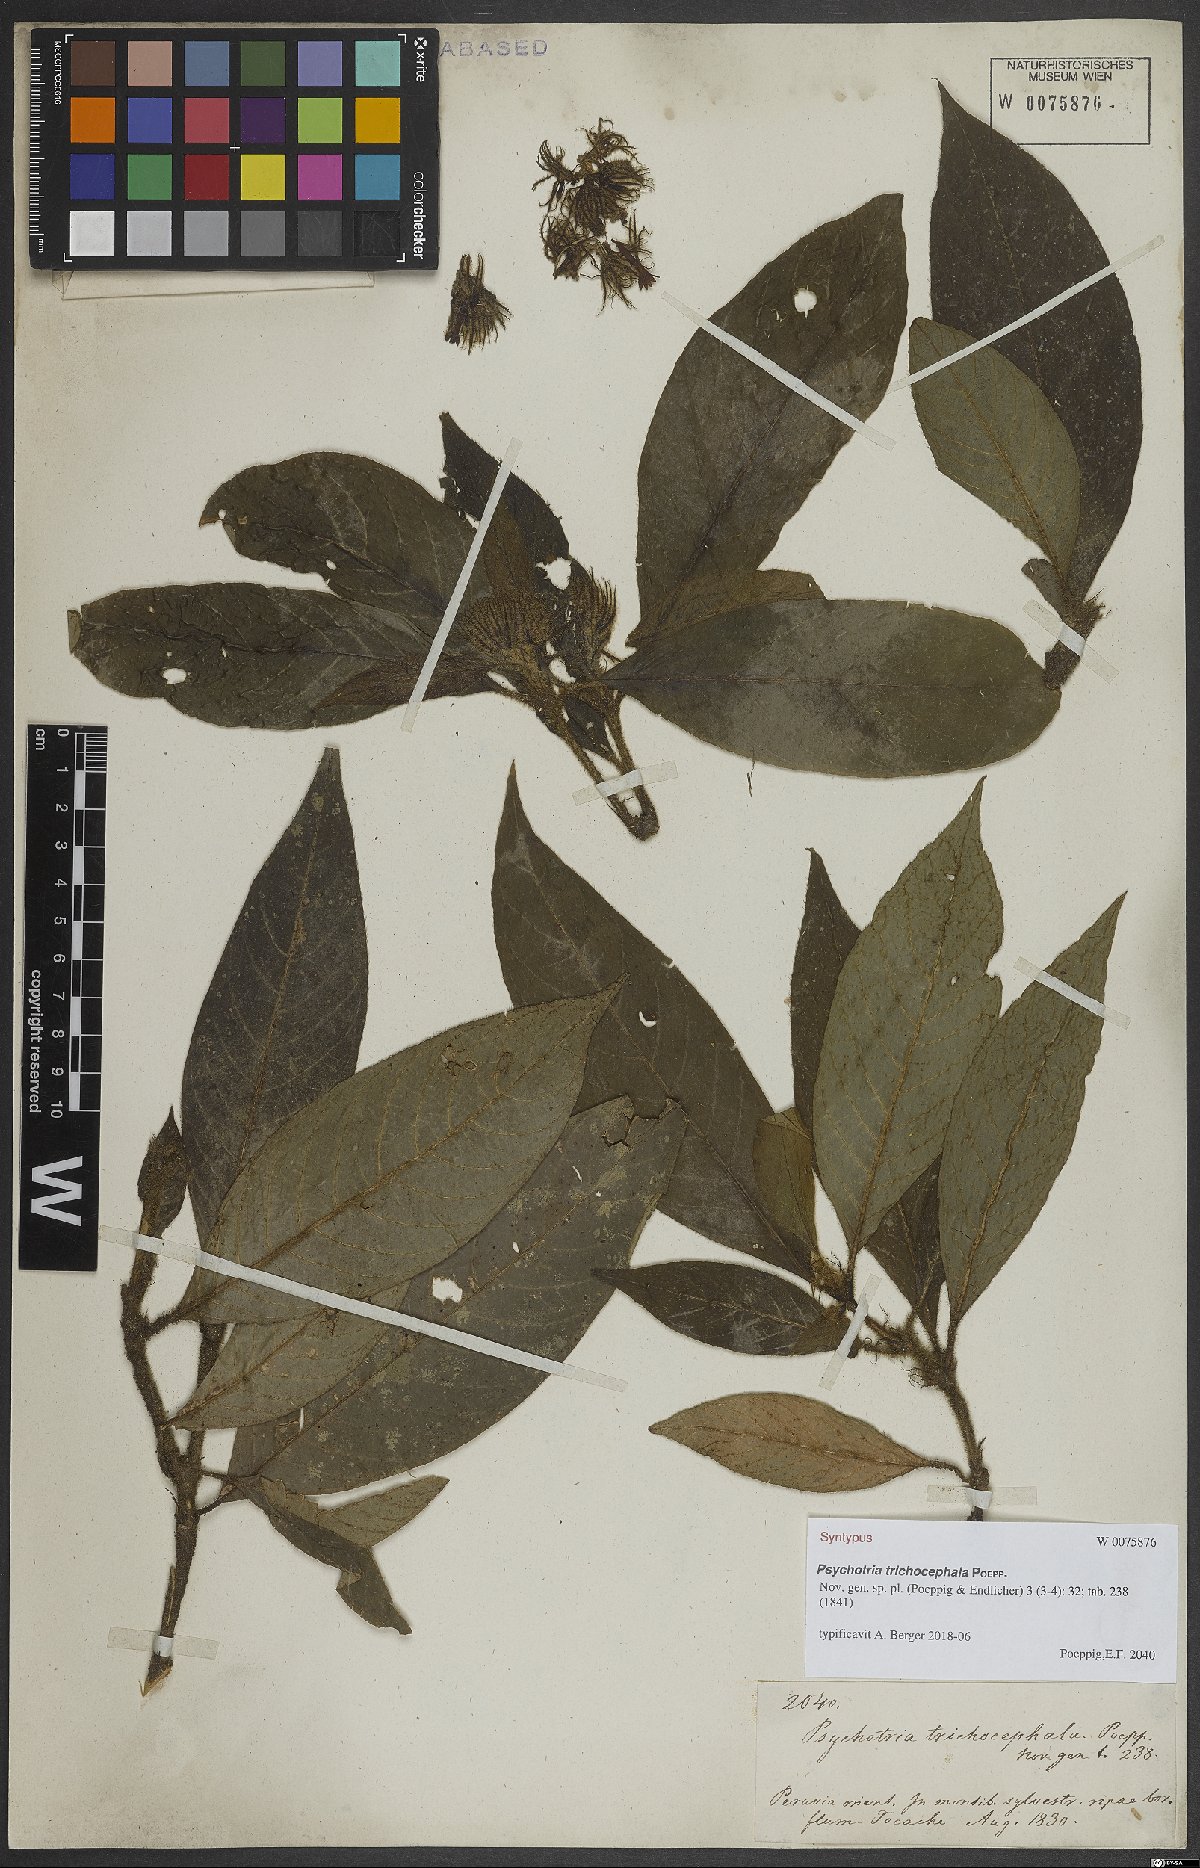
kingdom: Plantae
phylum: Tracheophyta
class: Magnoliopsida
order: Gentianales
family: Rubiaceae
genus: Palicourea
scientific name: Palicourea trichocephala
